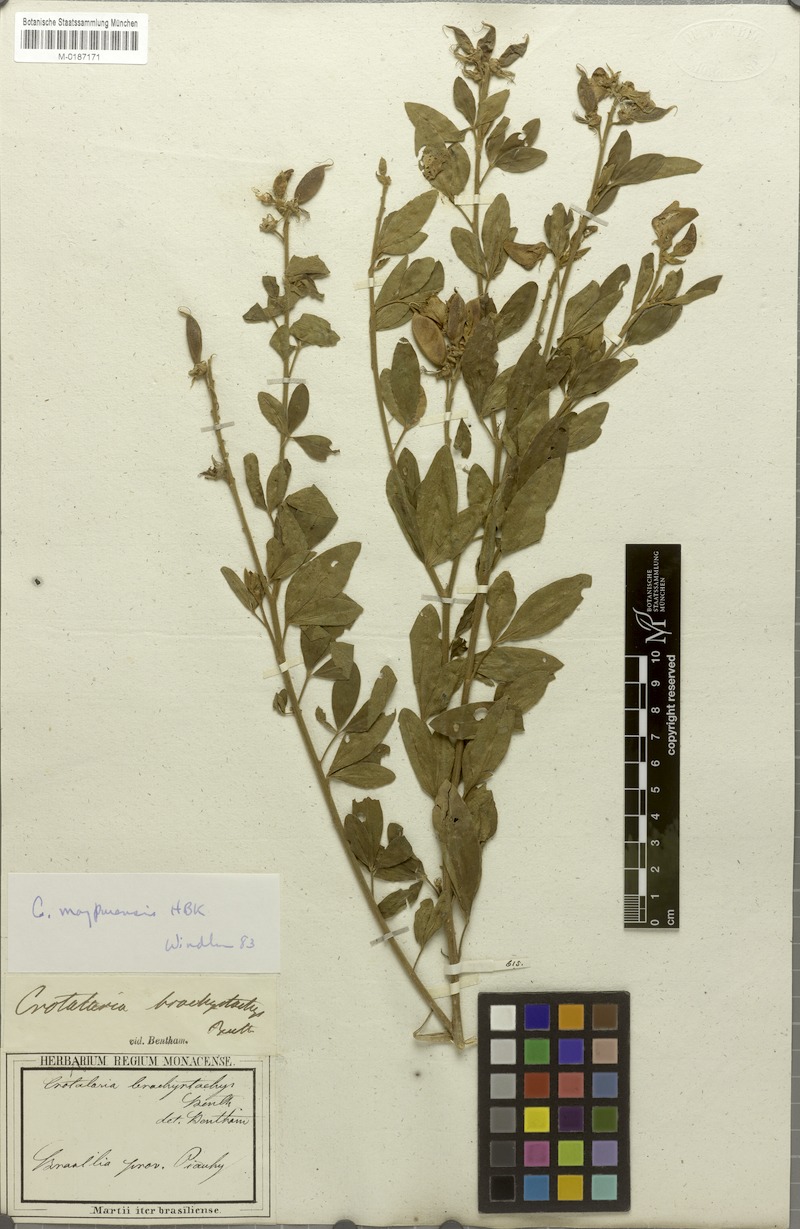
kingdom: Plantae
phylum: Tracheophyta
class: Magnoliopsida
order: Fabales
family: Fabaceae
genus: Crotalaria
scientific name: Crotalaria maypurensis
